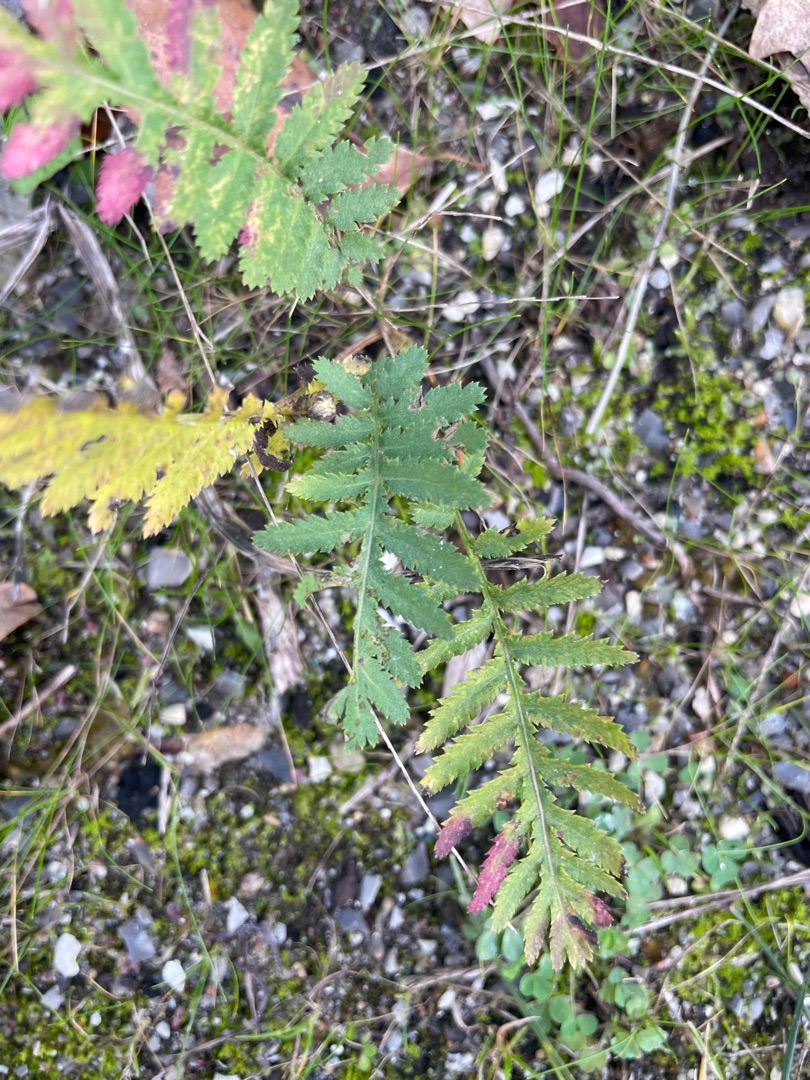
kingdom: Plantae
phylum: Tracheophyta
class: Magnoliopsida
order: Asterales
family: Asteraceae
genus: Tanacetum
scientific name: Tanacetum vulgare
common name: Rejnfan
